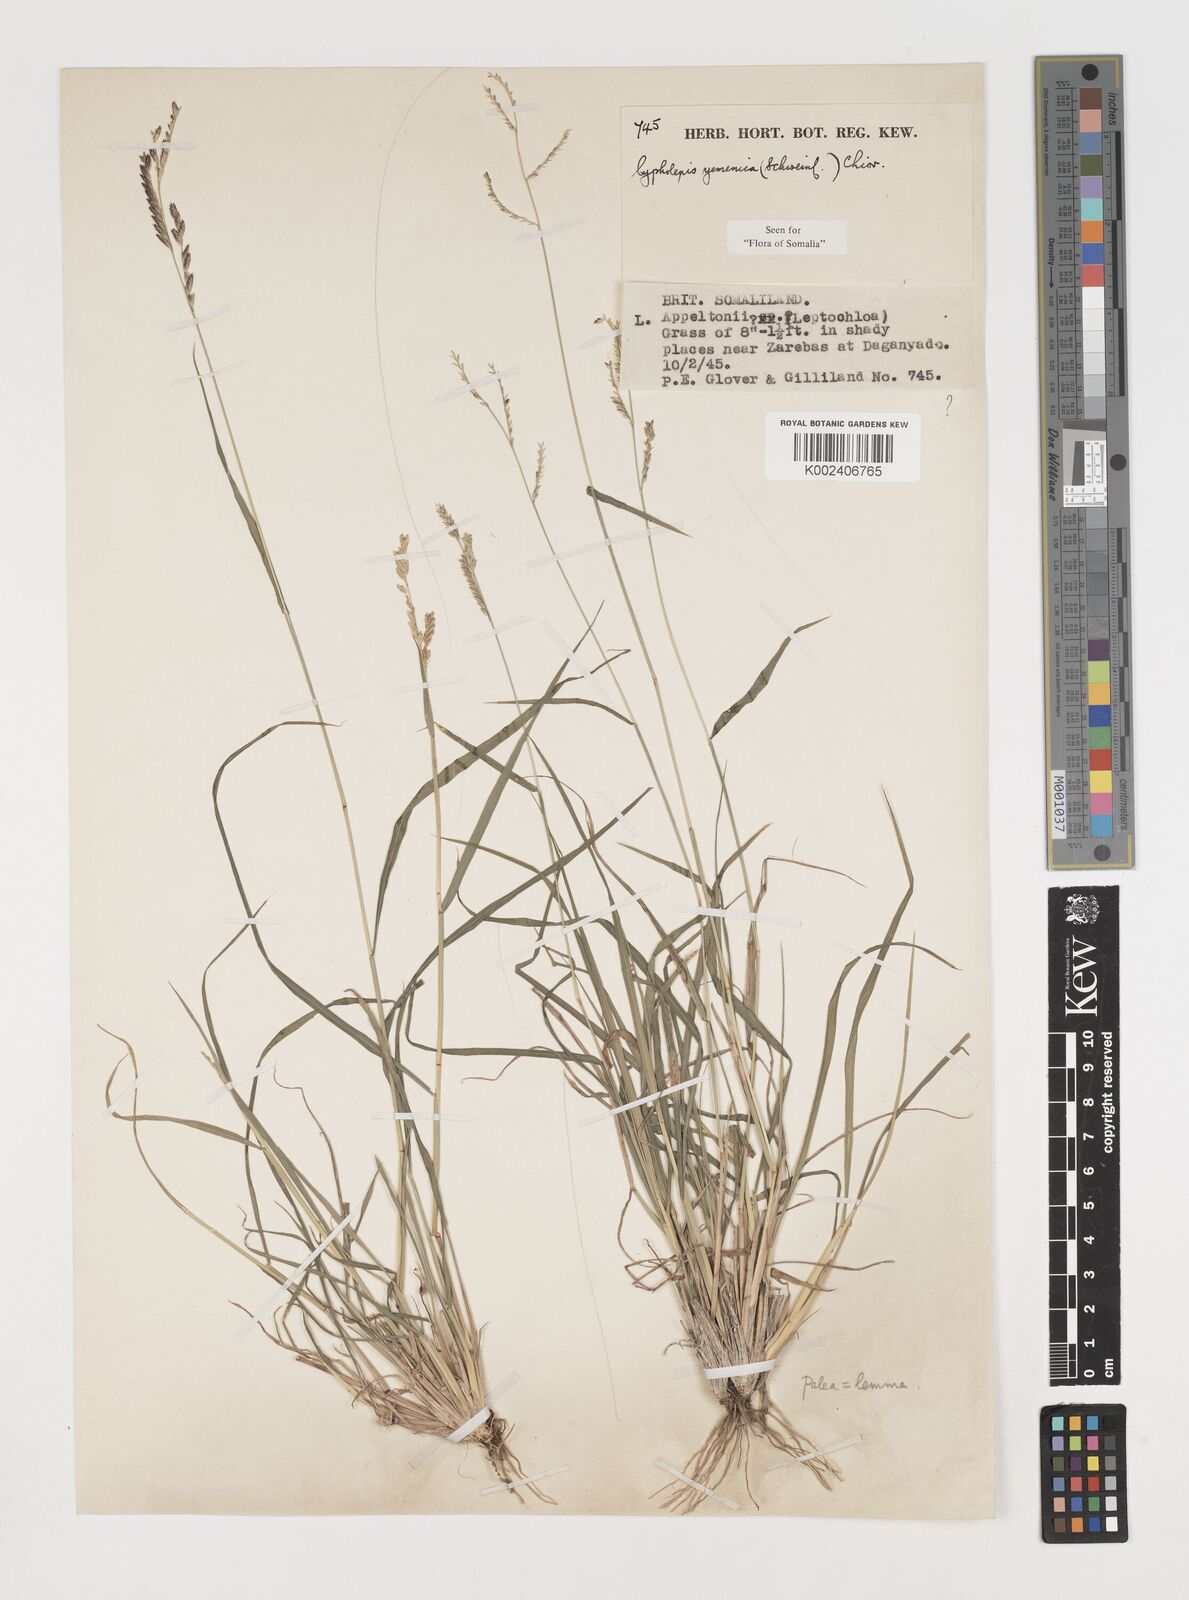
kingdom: Plantae
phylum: Tracheophyta
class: Liliopsida
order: Poales
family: Poaceae
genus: Disakisperma
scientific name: Disakisperma yemenicum
